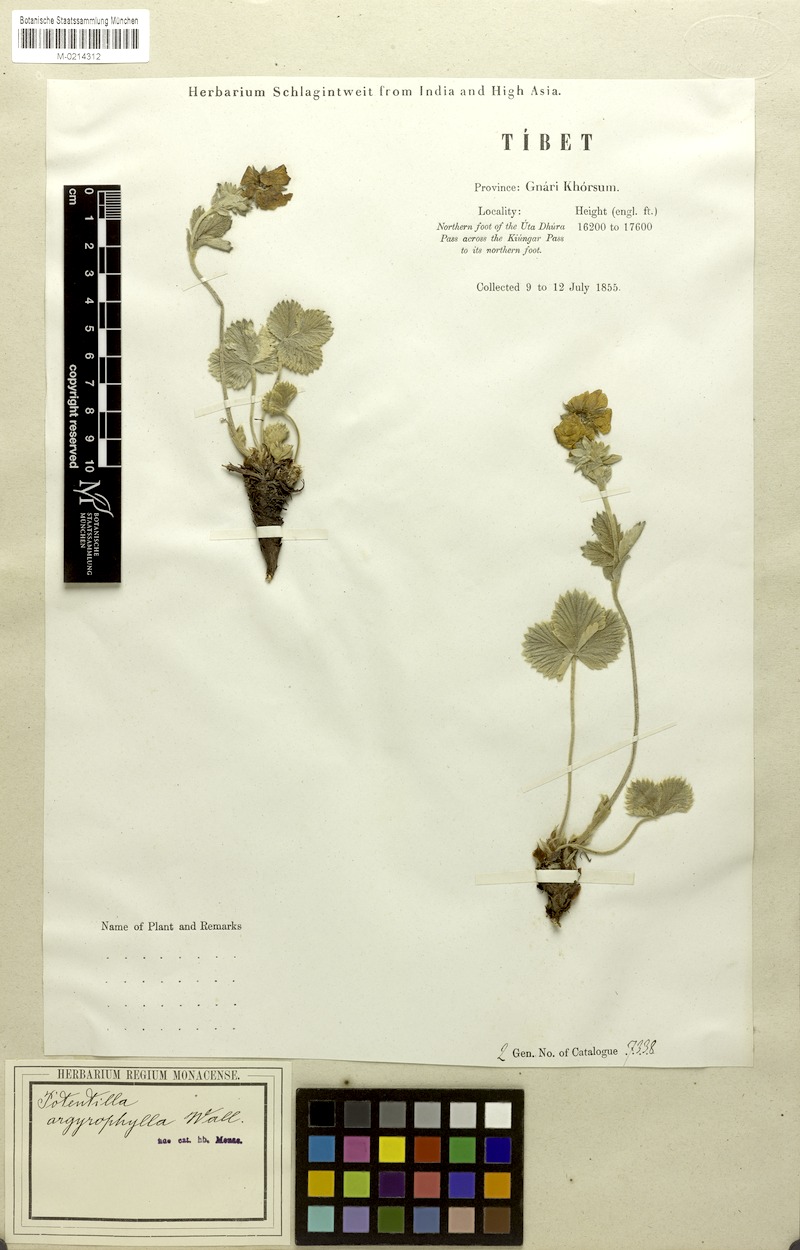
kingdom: Plantae
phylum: Tracheophyta
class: Magnoliopsida
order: Rosales
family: Rosaceae
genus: Potentilla
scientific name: Potentilla cathaclines
